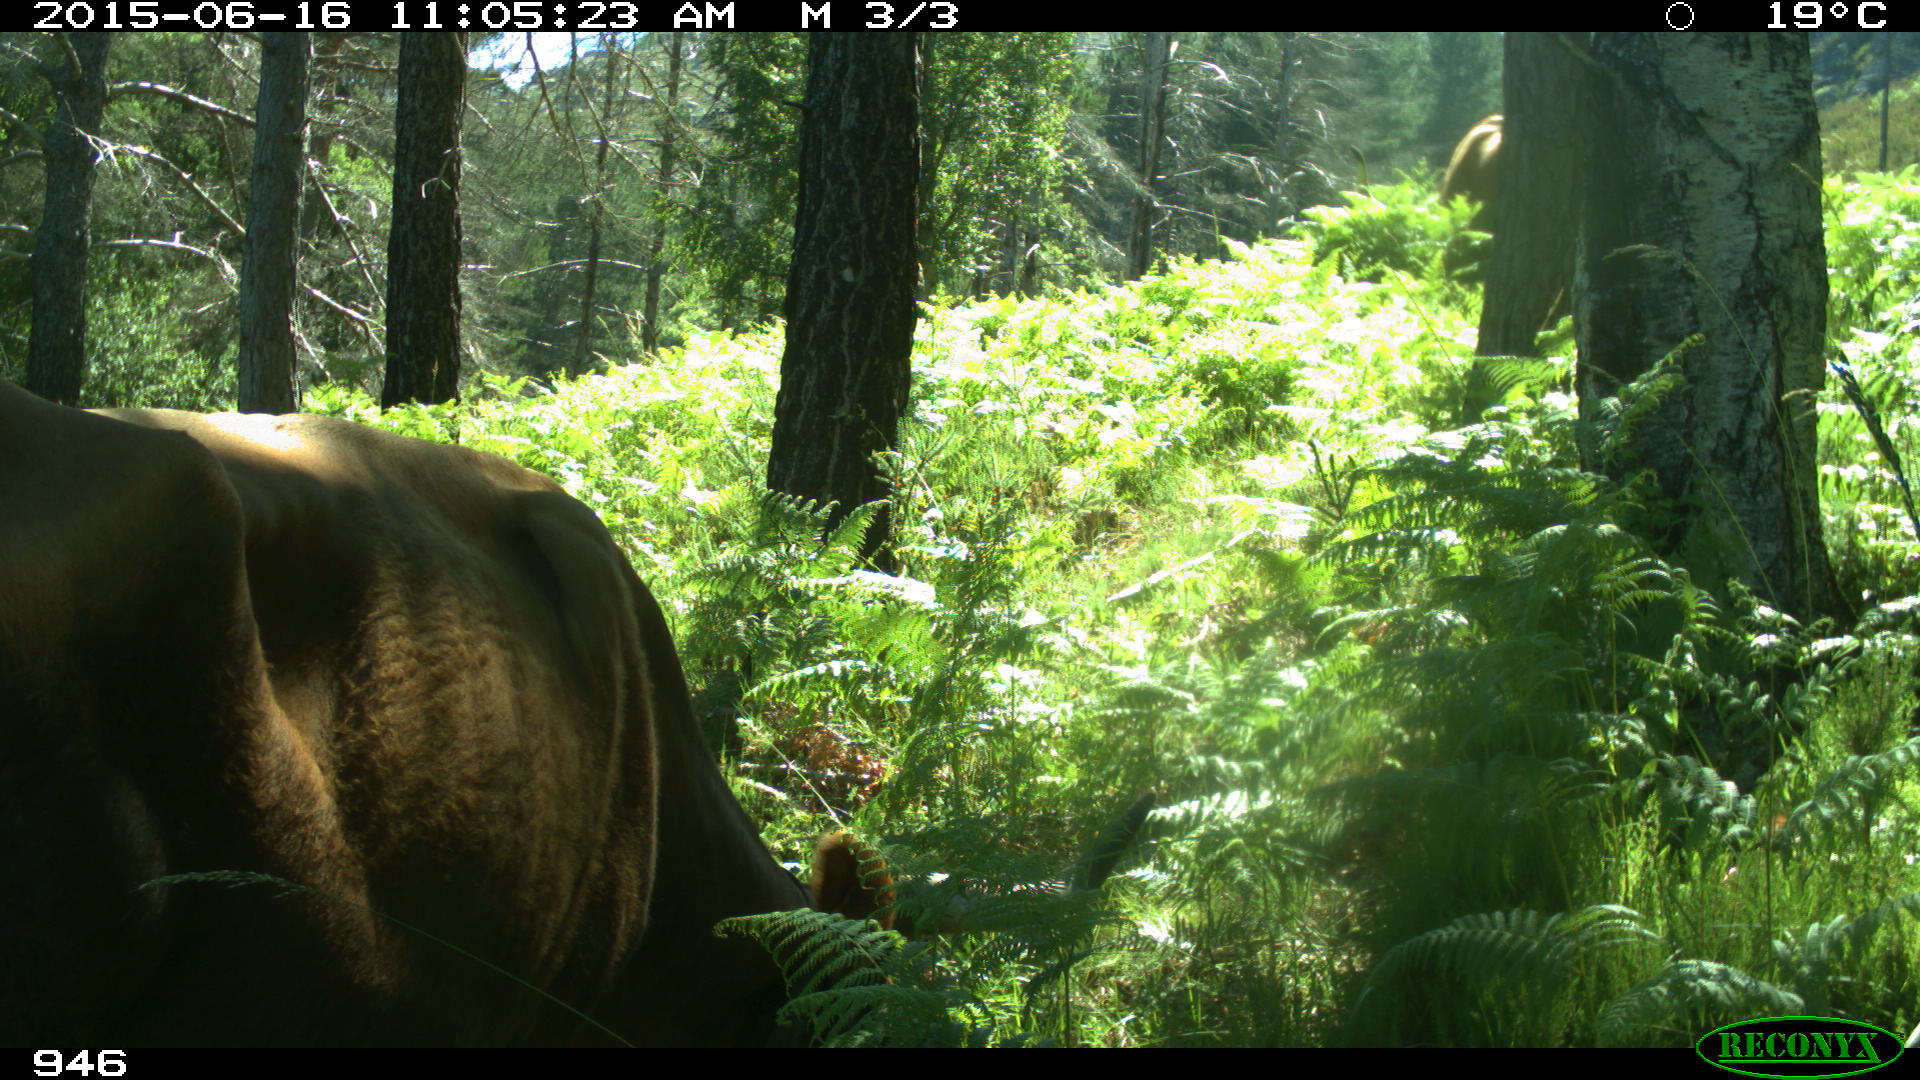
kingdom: Animalia
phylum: Chordata
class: Mammalia
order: Artiodactyla
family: Bovidae
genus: Bos
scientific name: Bos taurus
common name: Domesticated cattle
